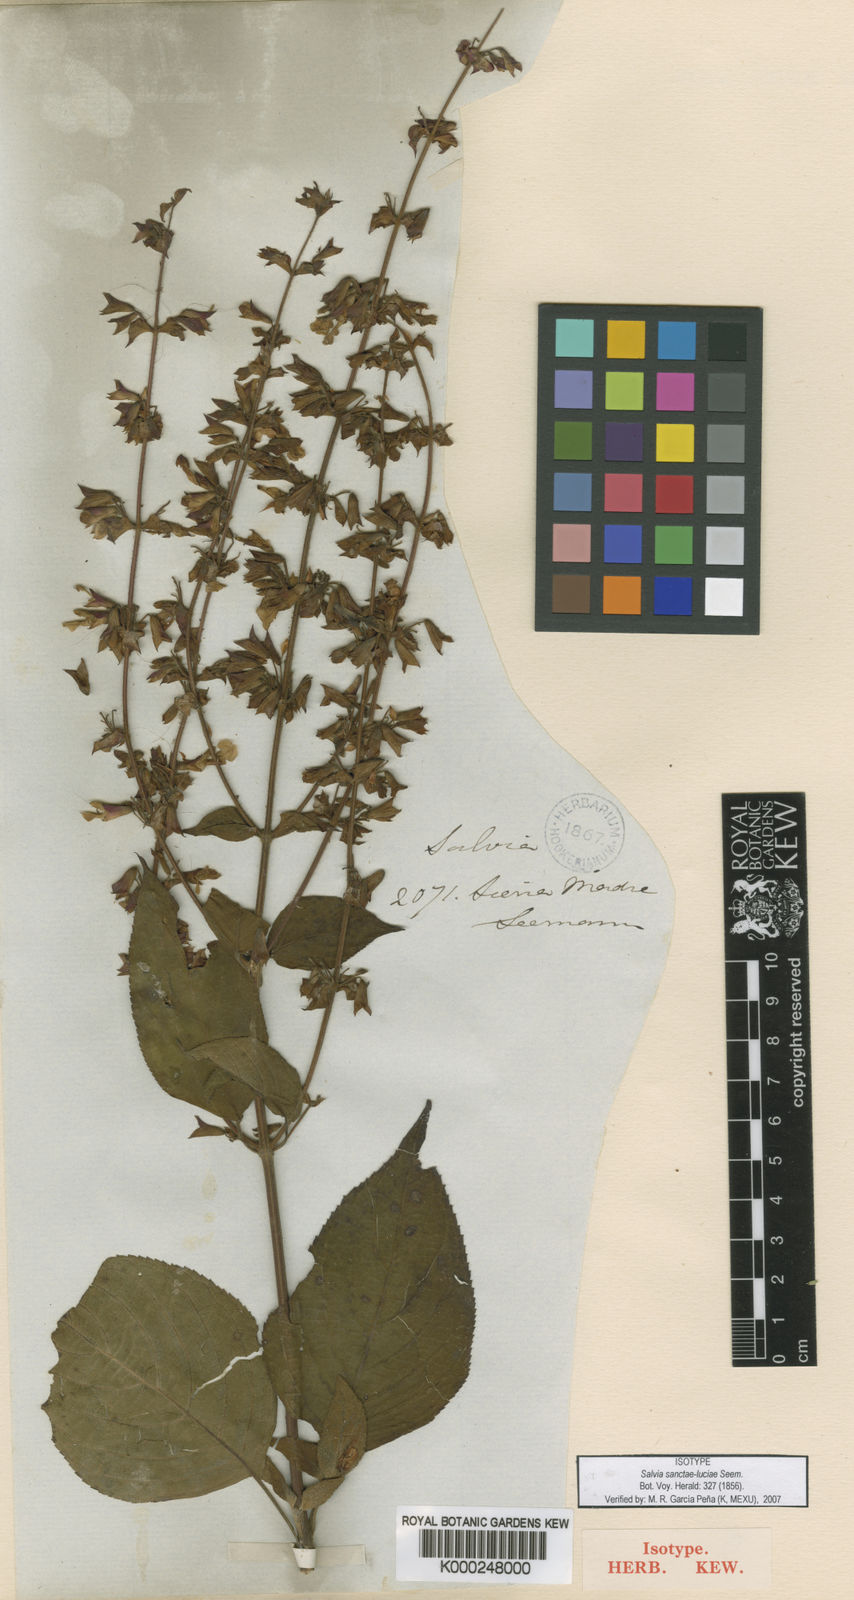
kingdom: Plantae
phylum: Tracheophyta
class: Magnoliopsida
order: Lamiales
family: Lamiaceae
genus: Salvia
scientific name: Salvia sanctae-luciae
